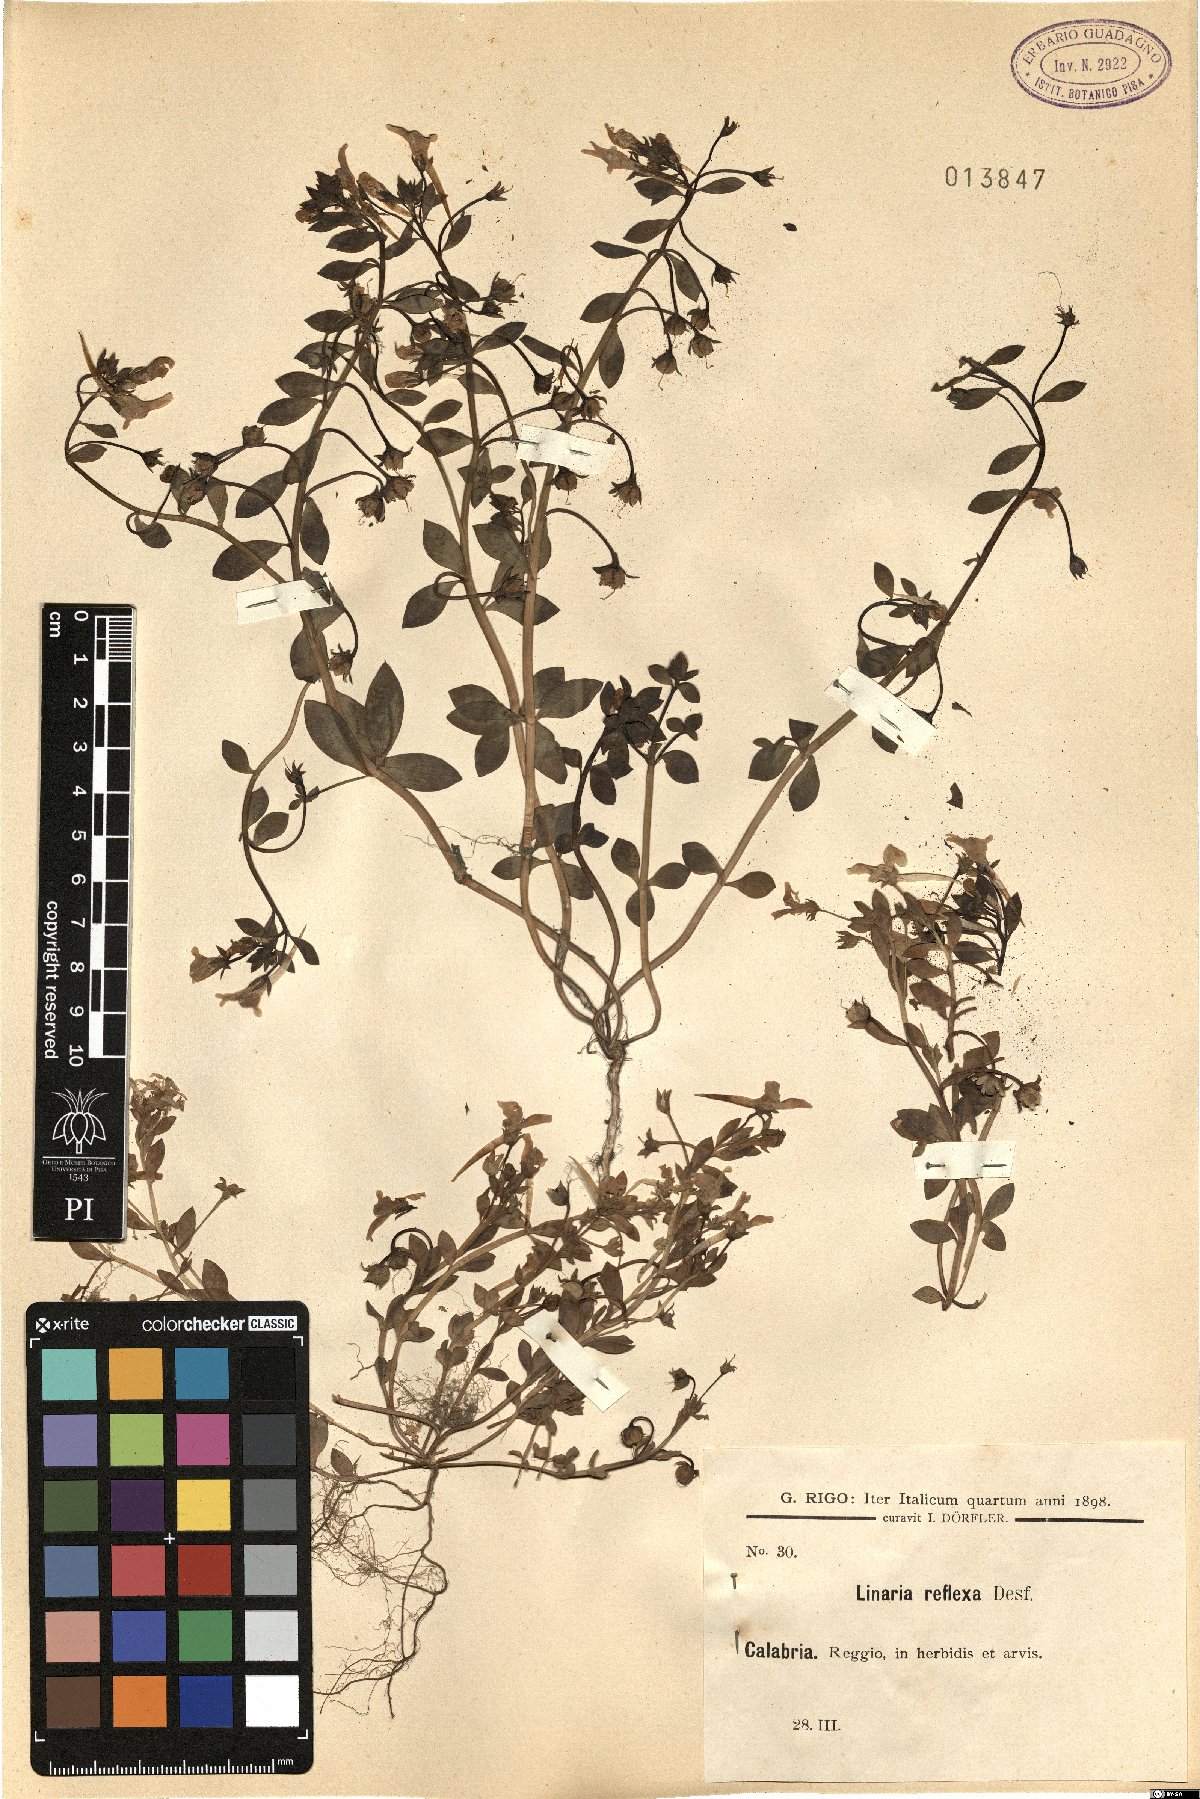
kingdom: Plantae
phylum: Tracheophyta
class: Magnoliopsida
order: Lamiales
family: Plantaginaceae
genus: Linaria
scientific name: Linaria reflexa
